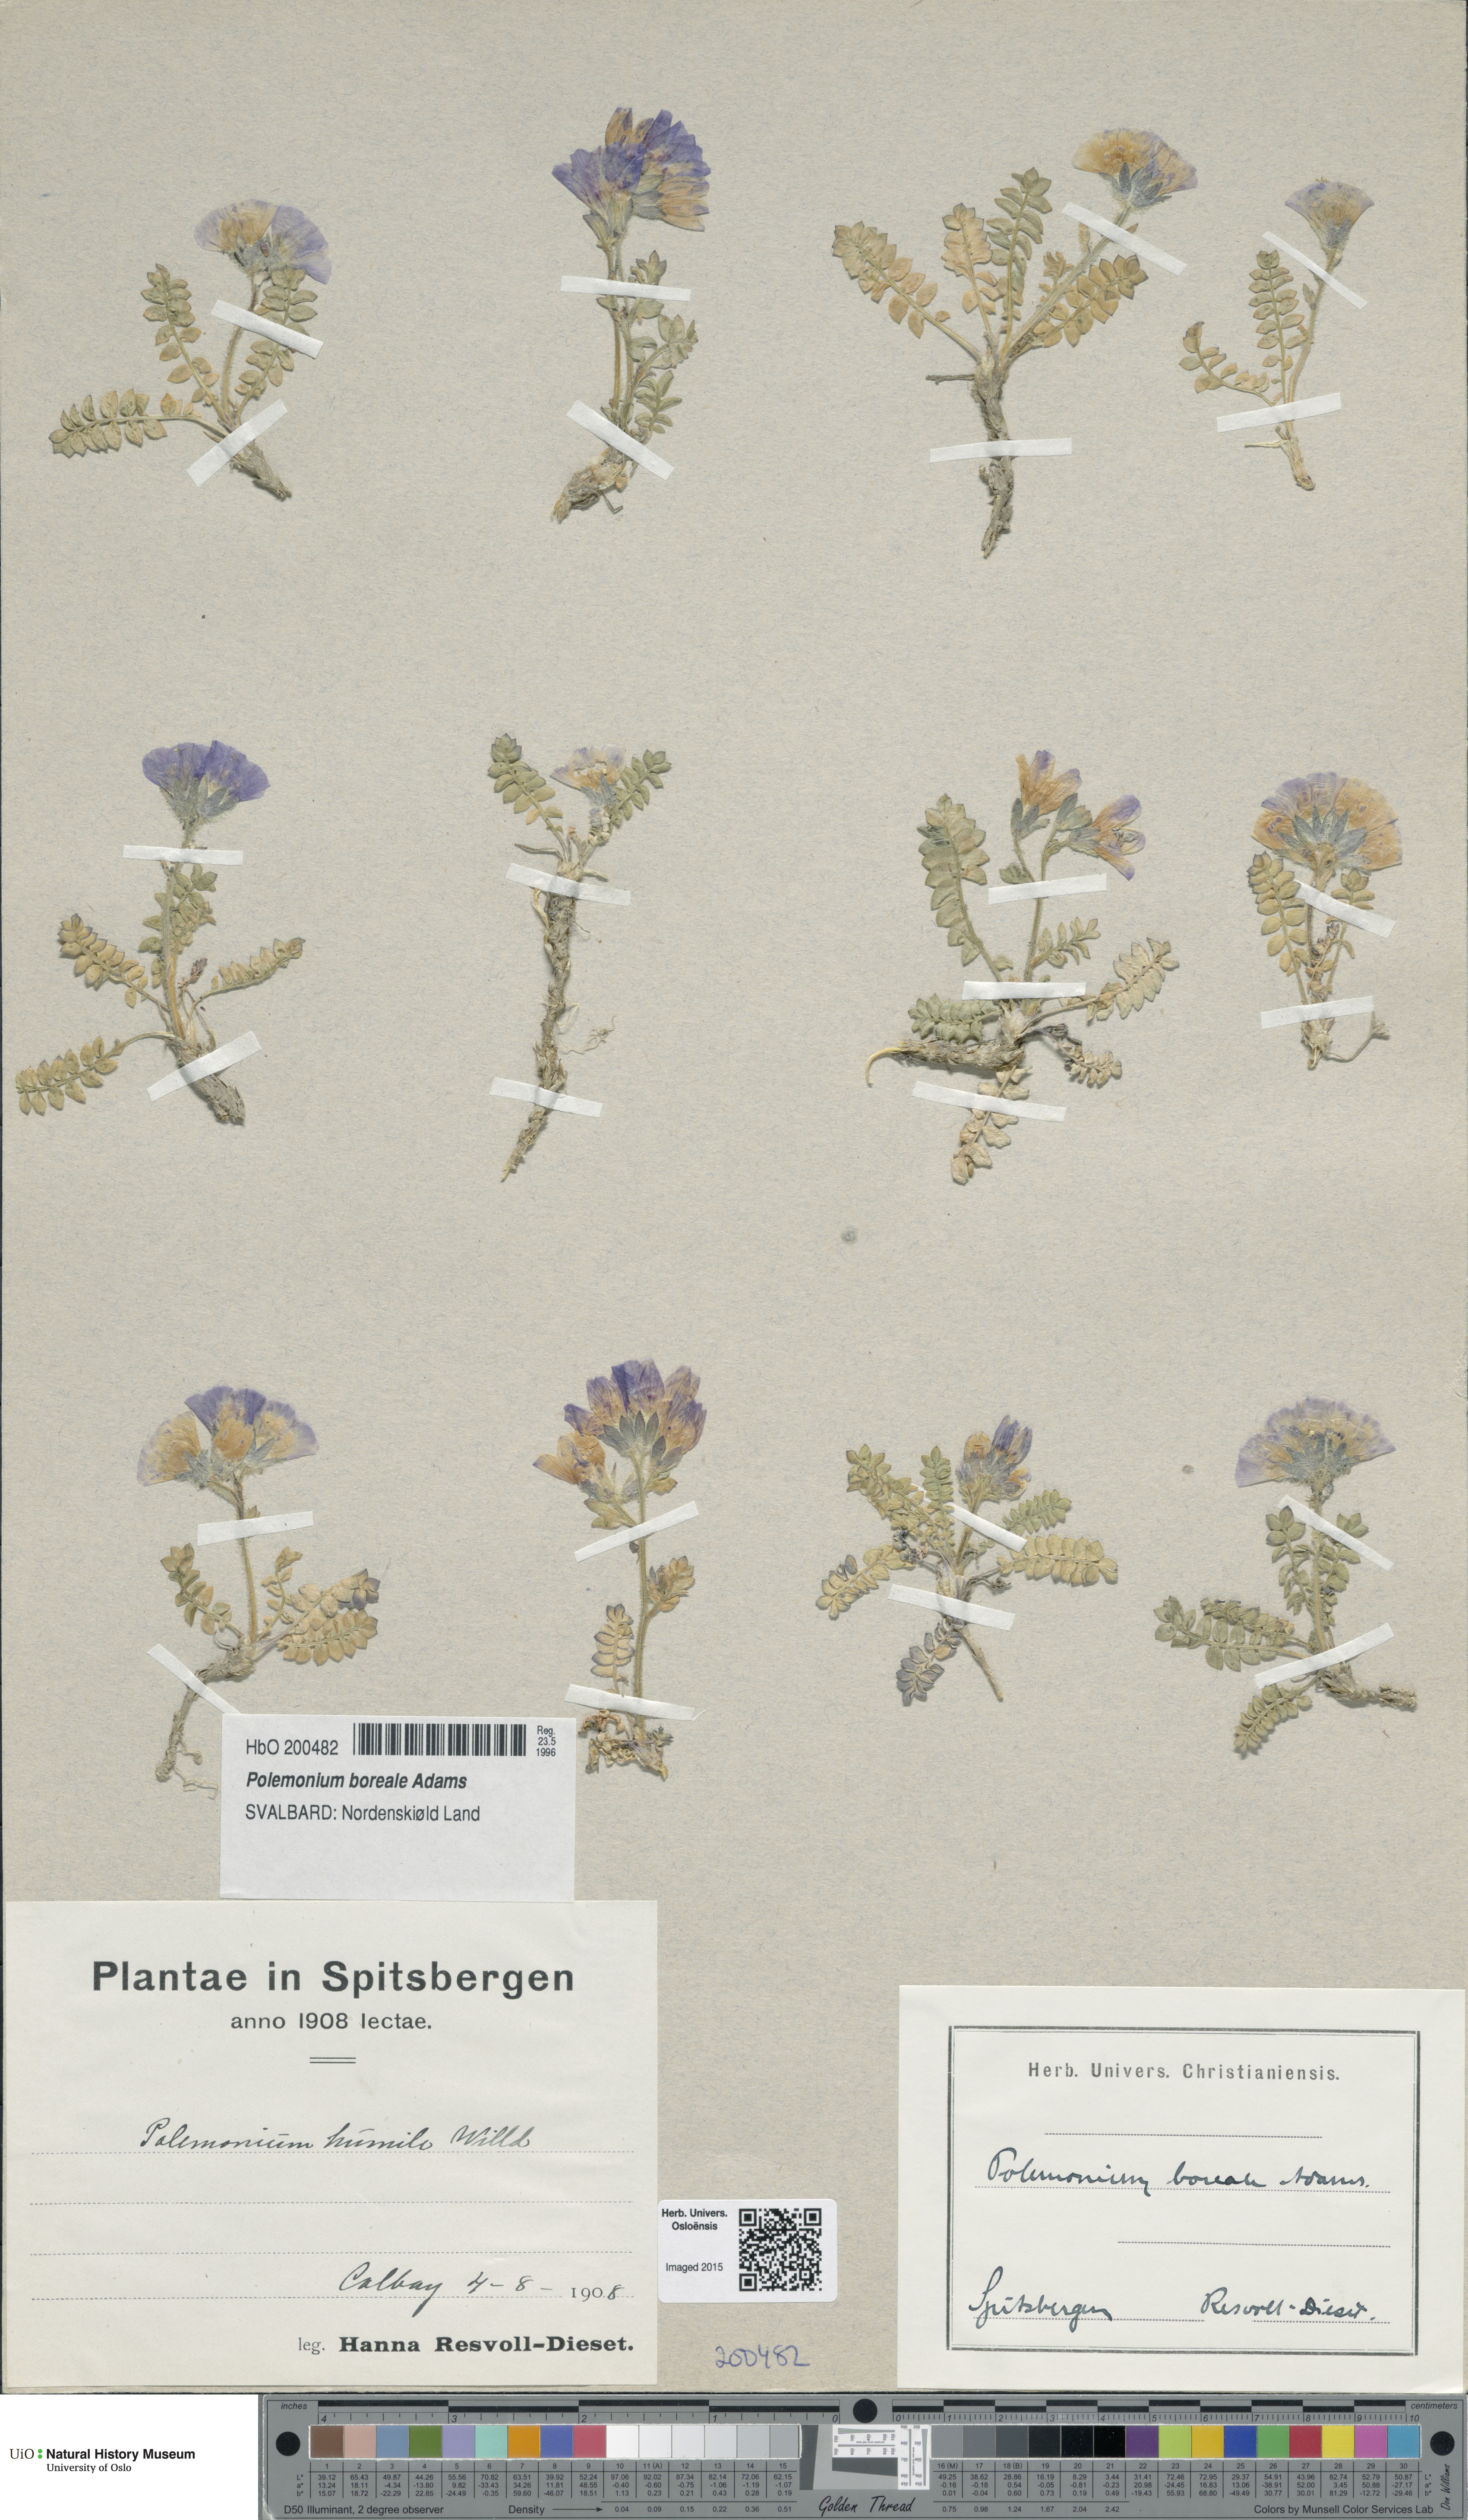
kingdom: Plantae
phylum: Tracheophyta
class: Magnoliopsida
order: Ericales
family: Polemoniaceae
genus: Polemonium
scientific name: Polemonium boreale
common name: Boreal jacob's-ladder
